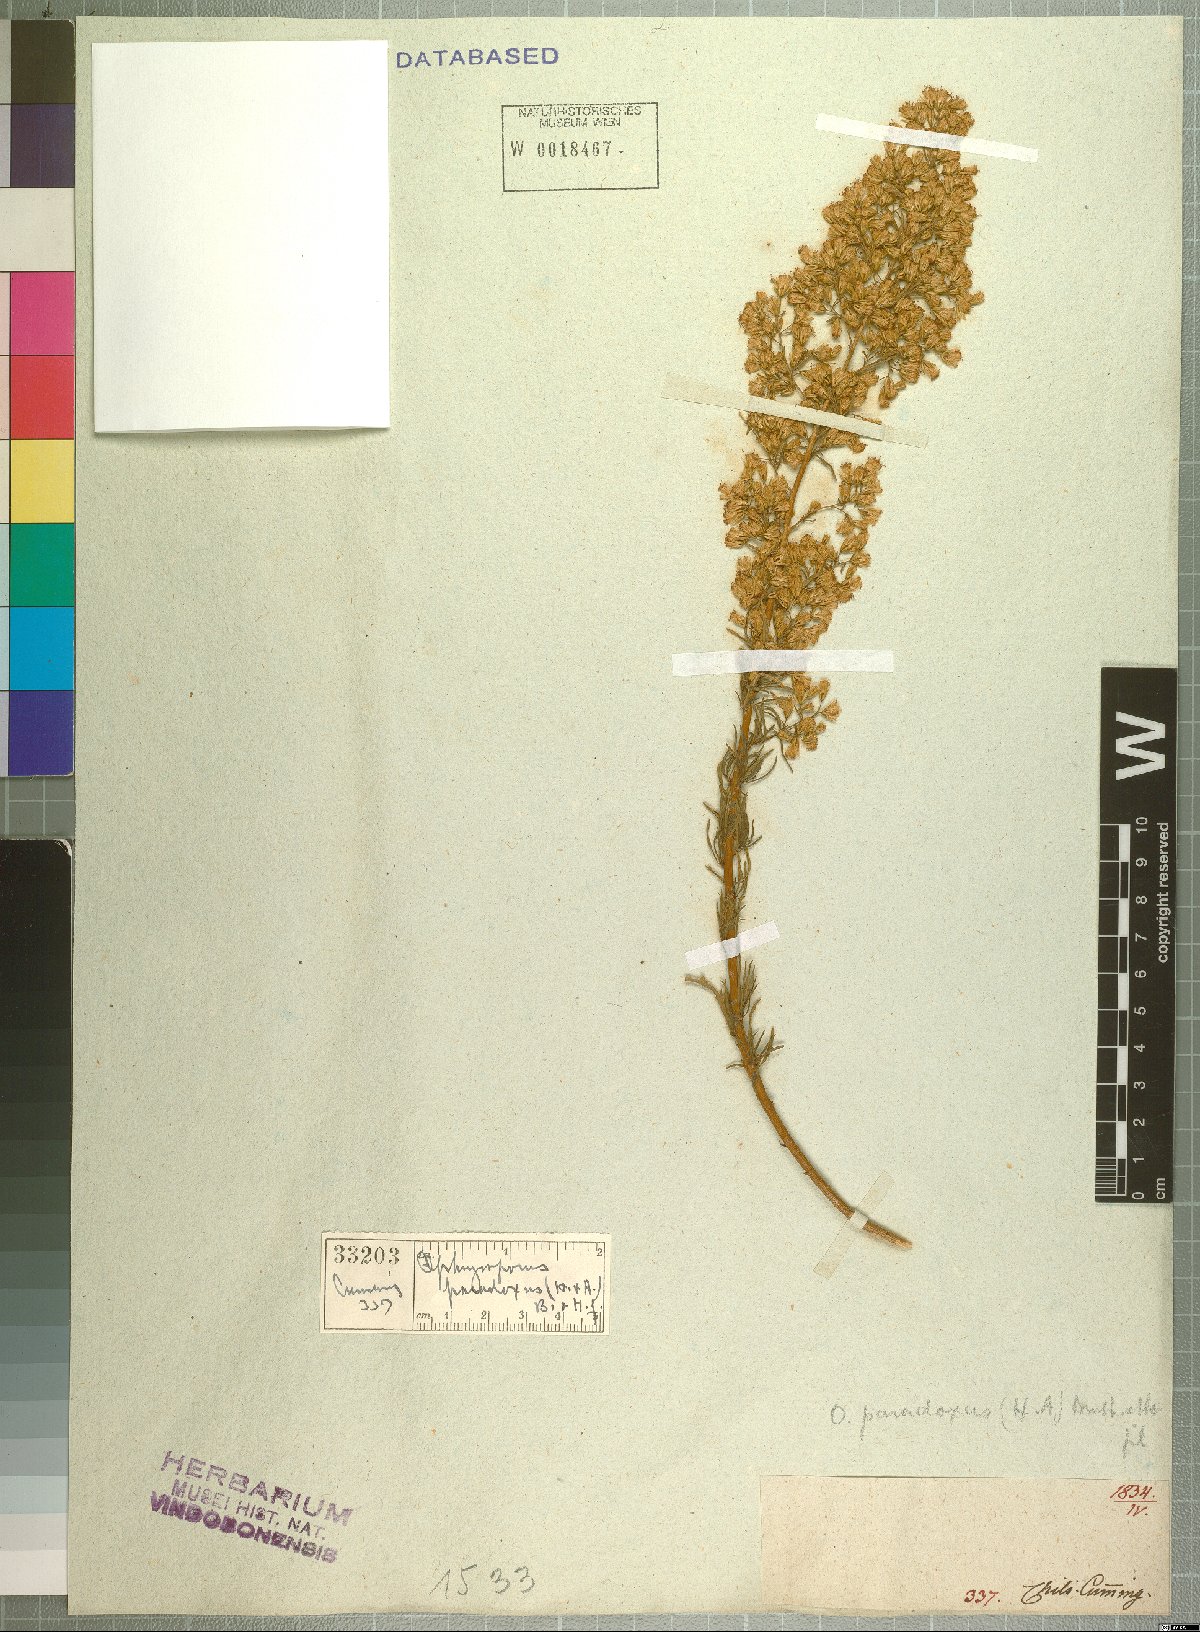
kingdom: Plantae
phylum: Tracheophyta
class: Magnoliopsida
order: Asterales
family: Asteraceae
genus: Ophryosporus
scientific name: Ophryosporus paradoxus
